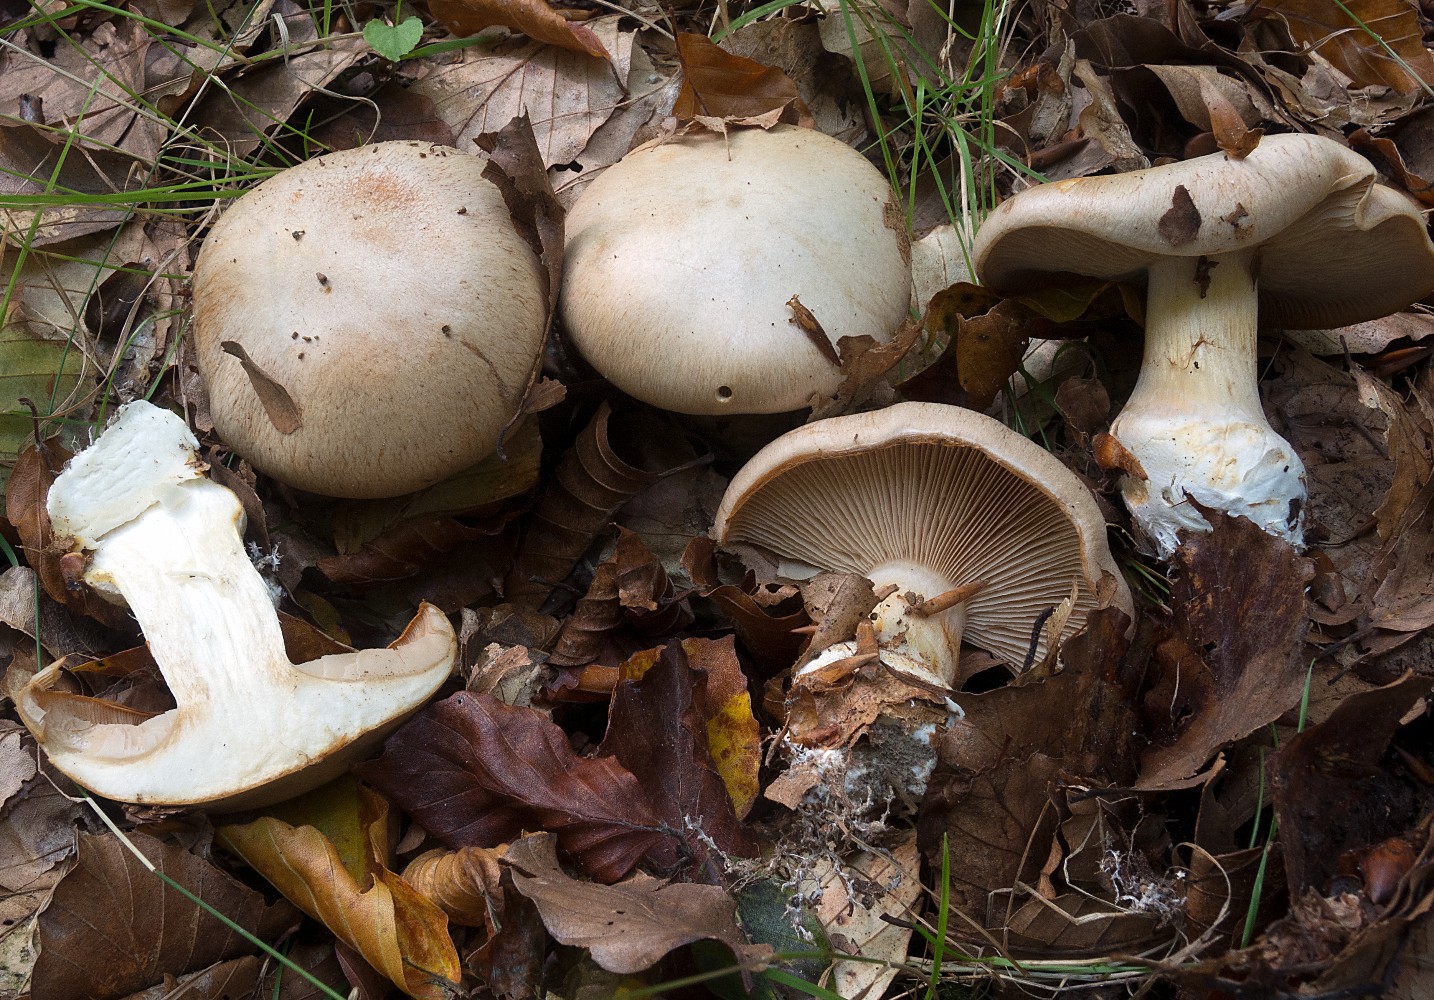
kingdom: Fungi
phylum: Basidiomycota
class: Agaricomycetes
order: Agaricales
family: Cortinariaceae
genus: Thaxterogaster
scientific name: Thaxterogaster talus
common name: knogle-slørhat
